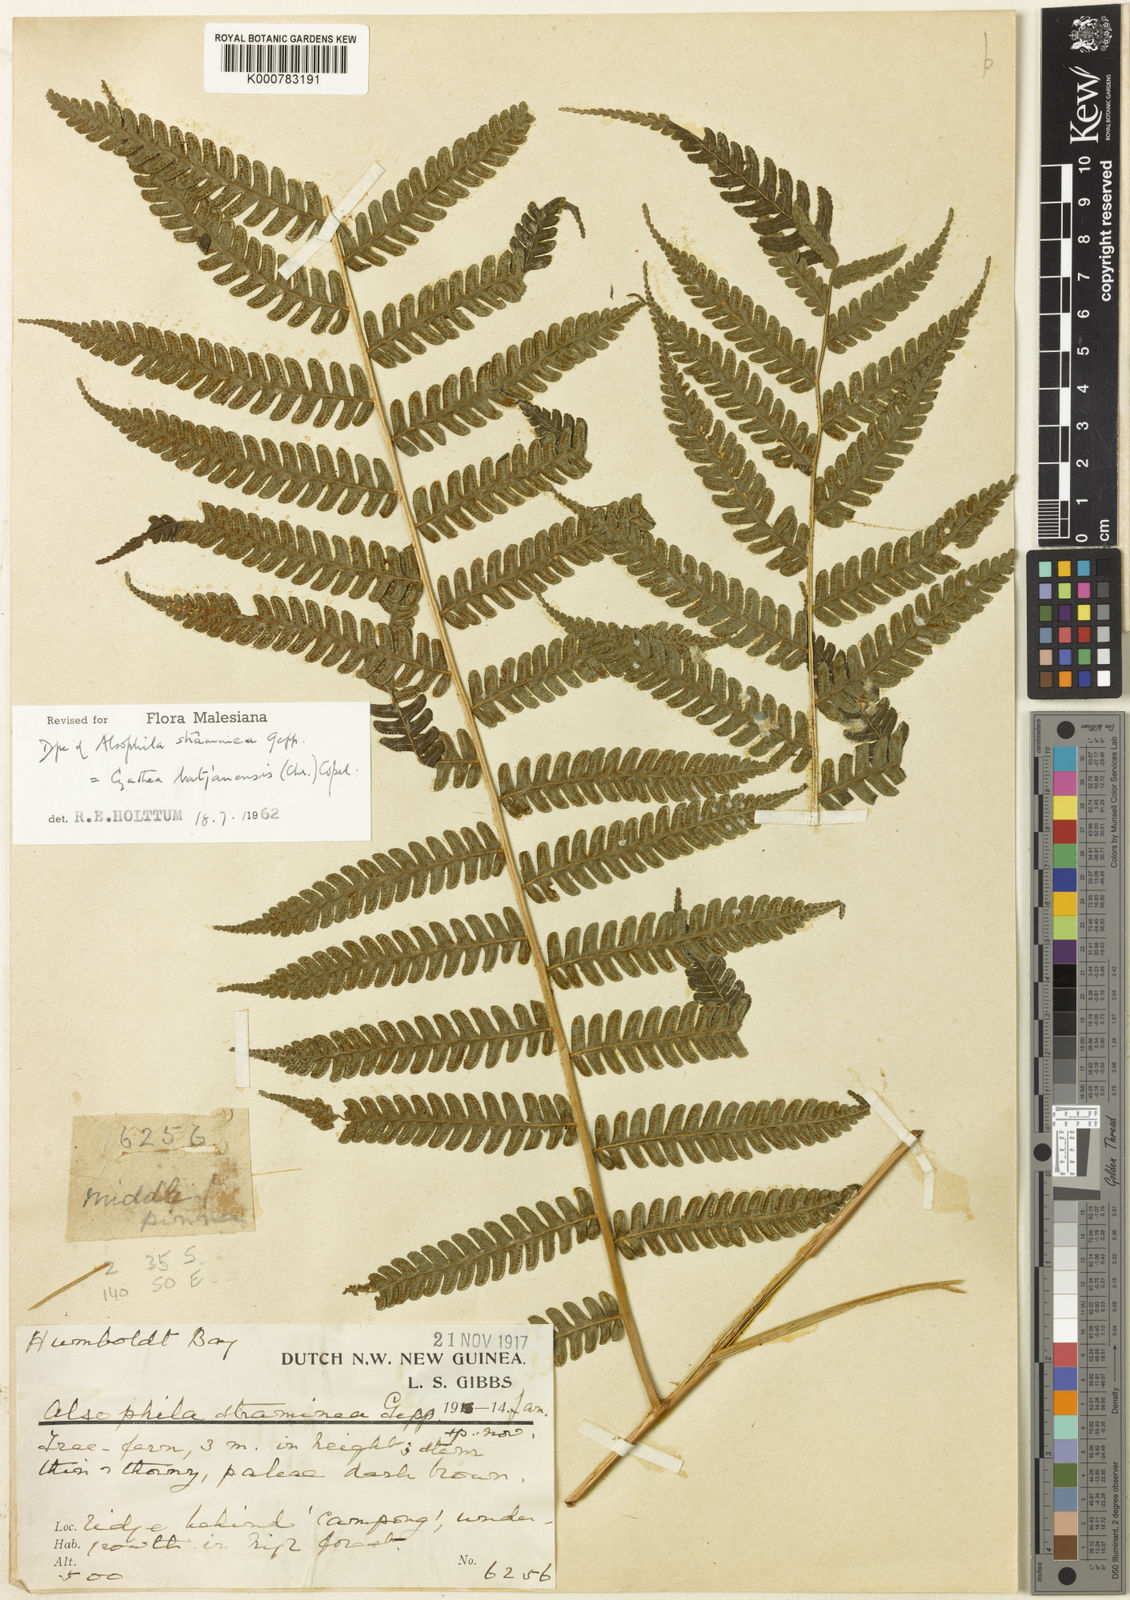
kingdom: Plantae
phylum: Tracheophyta
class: Polypodiopsida
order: Cyatheales
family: Cyatheaceae
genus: Alsophila
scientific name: Alsophila batjanensis
